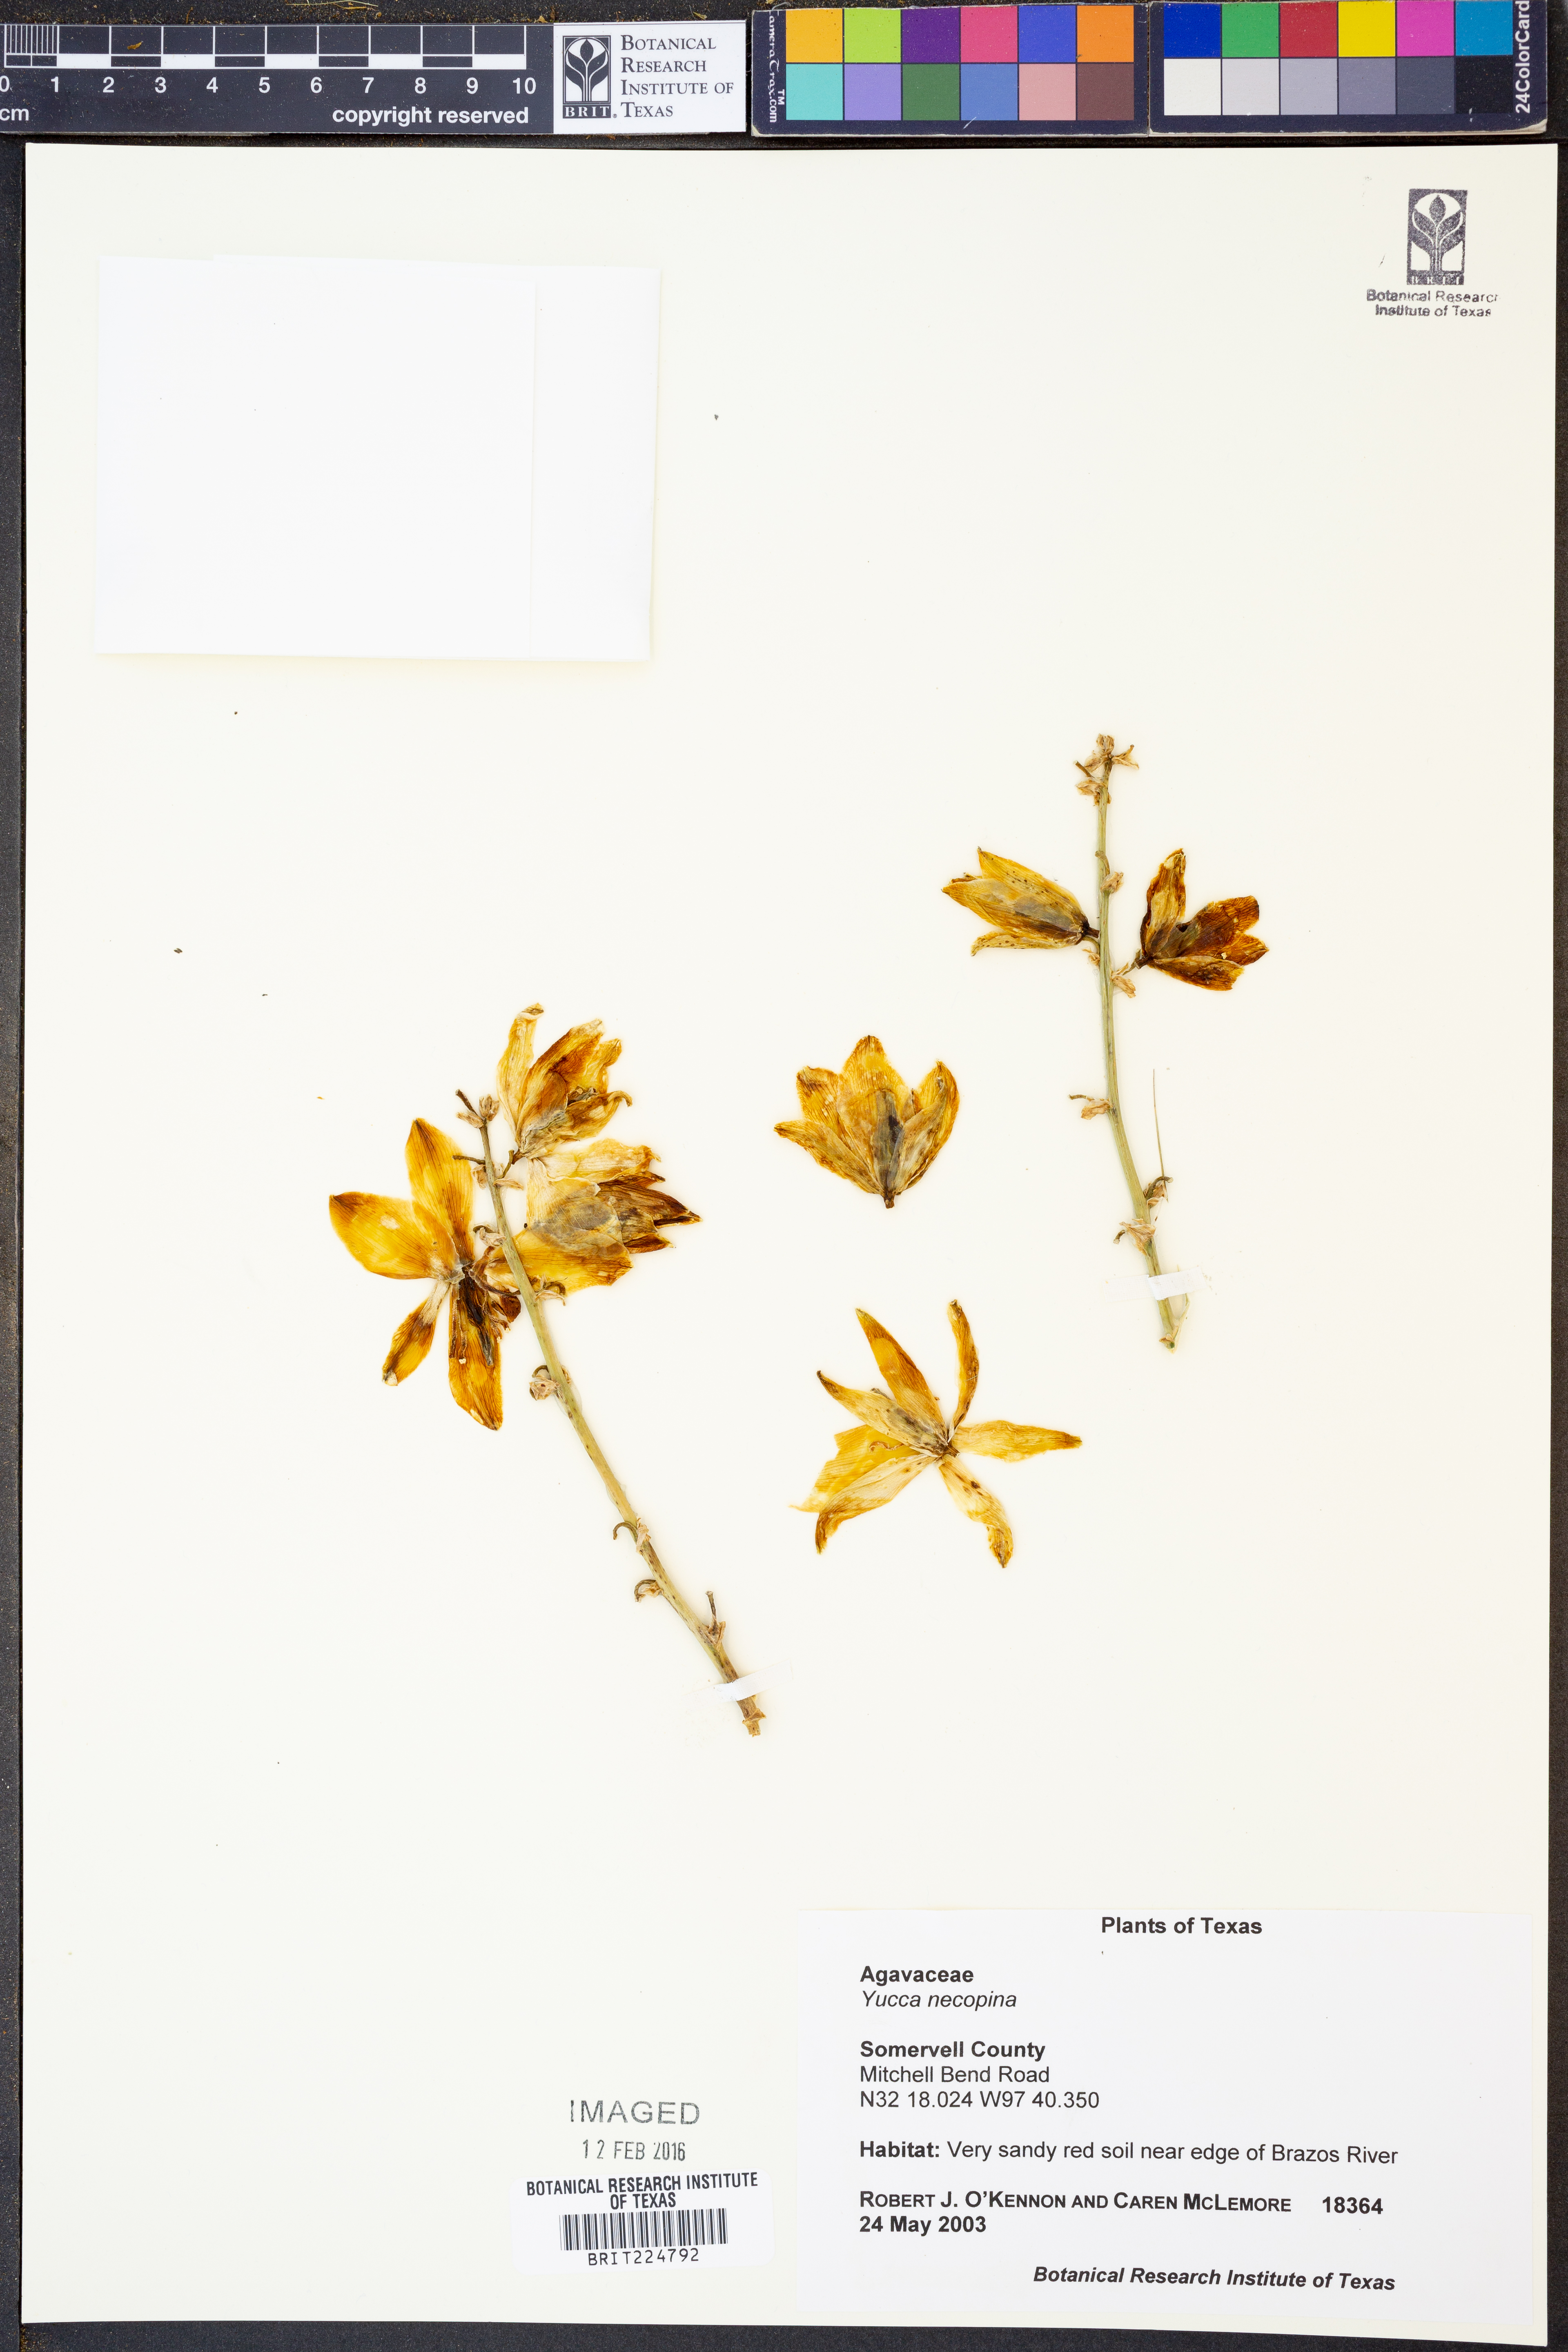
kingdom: Plantae
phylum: Tracheophyta
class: Liliopsida
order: Asparagales
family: Asparagaceae
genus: Yucca
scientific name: Yucca necopina
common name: Glen rose yucca
